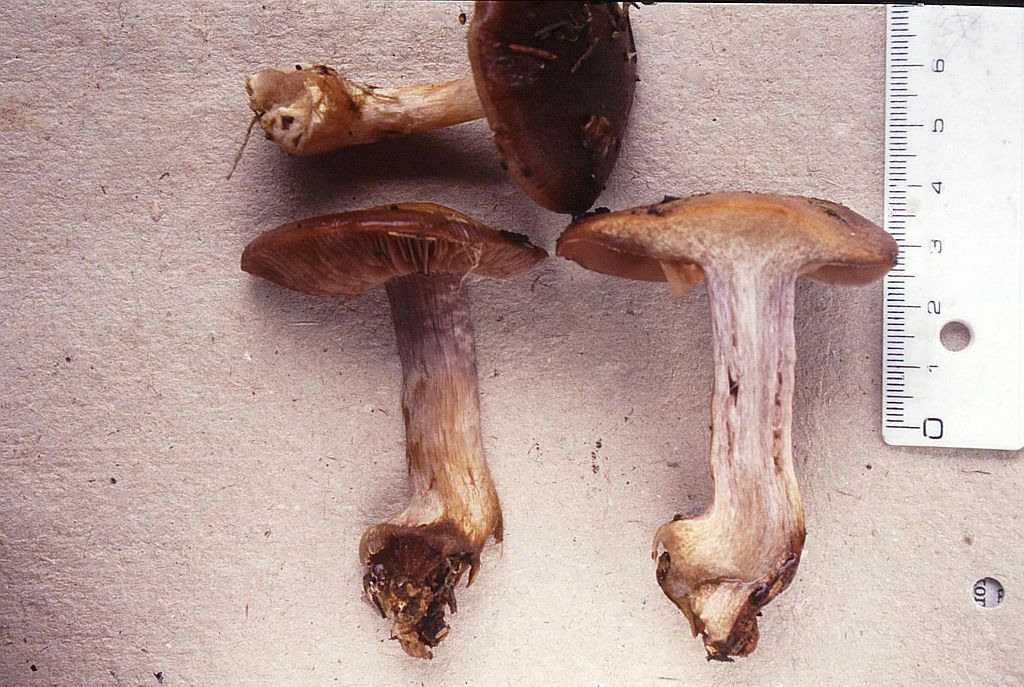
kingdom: Fungi
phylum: Basidiomycota
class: Agaricomycetes
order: Agaricales
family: Cortinariaceae
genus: Thaxterogaster
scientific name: Thaxterogaster scaurus
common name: sump-slørhat
